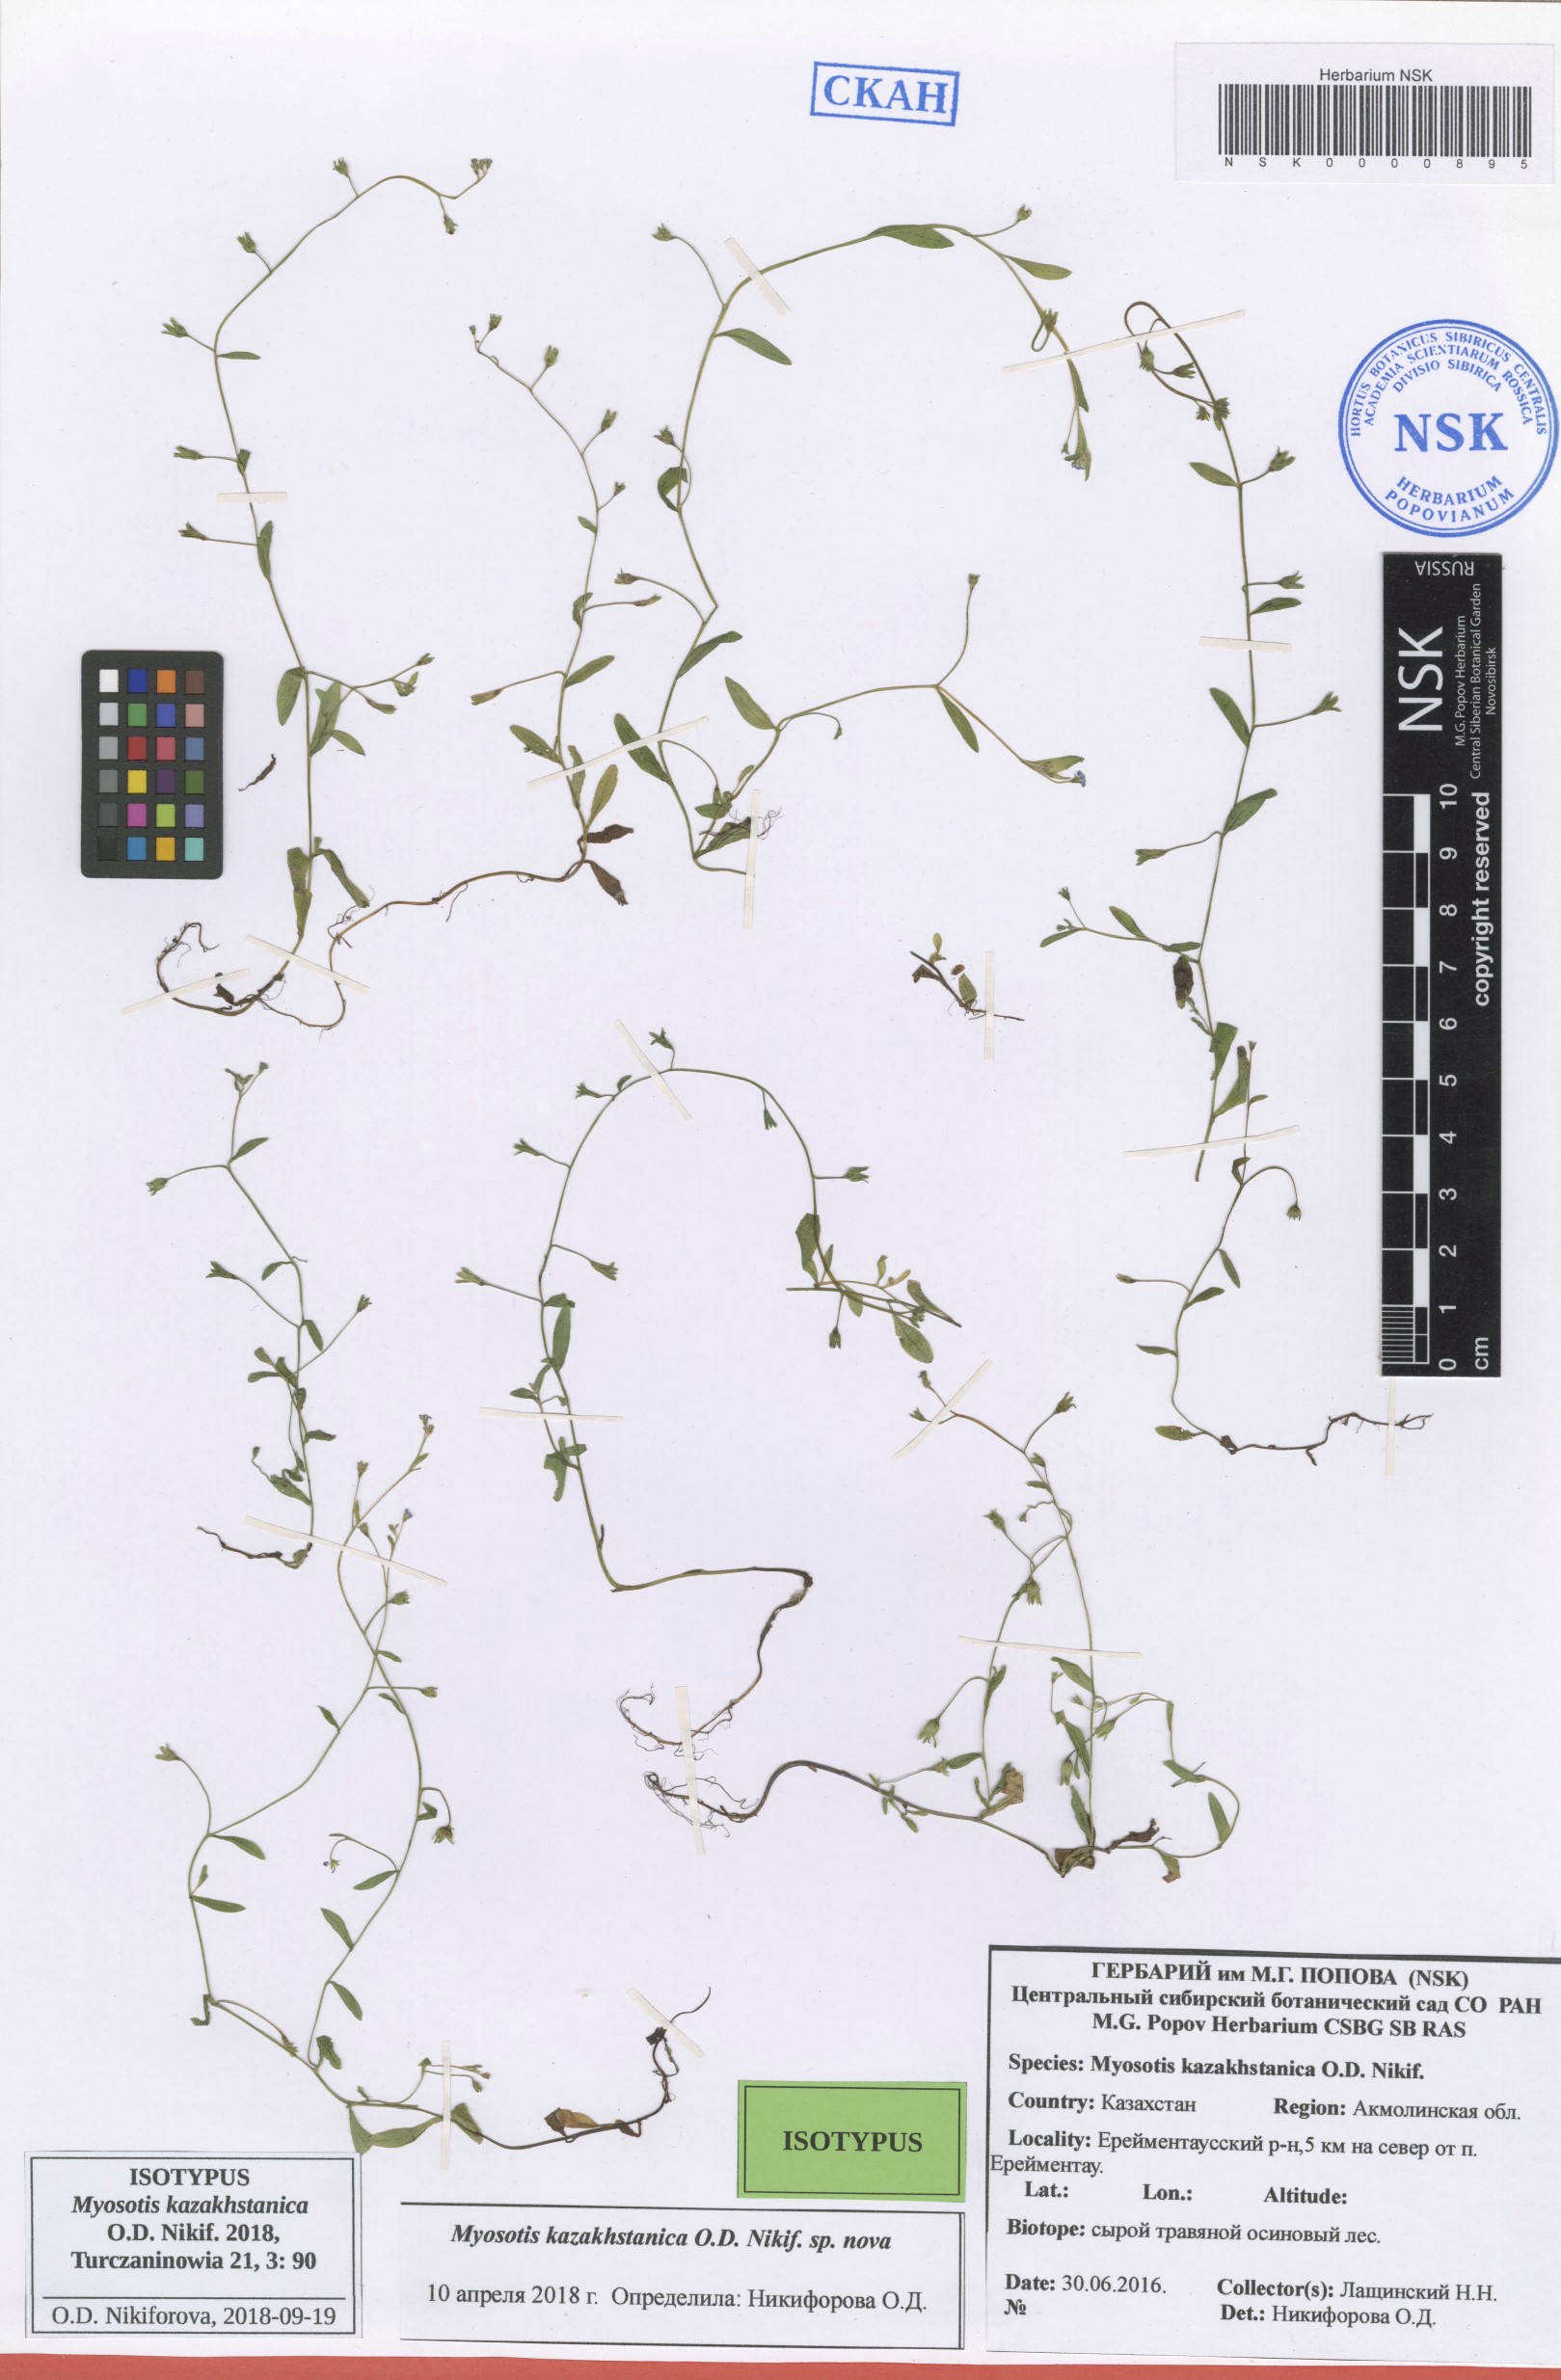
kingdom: Plantae
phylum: Tracheophyta
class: Magnoliopsida
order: Boraginales
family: Boraginaceae
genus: Myosotis
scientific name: Myosotis kazakhstanica
